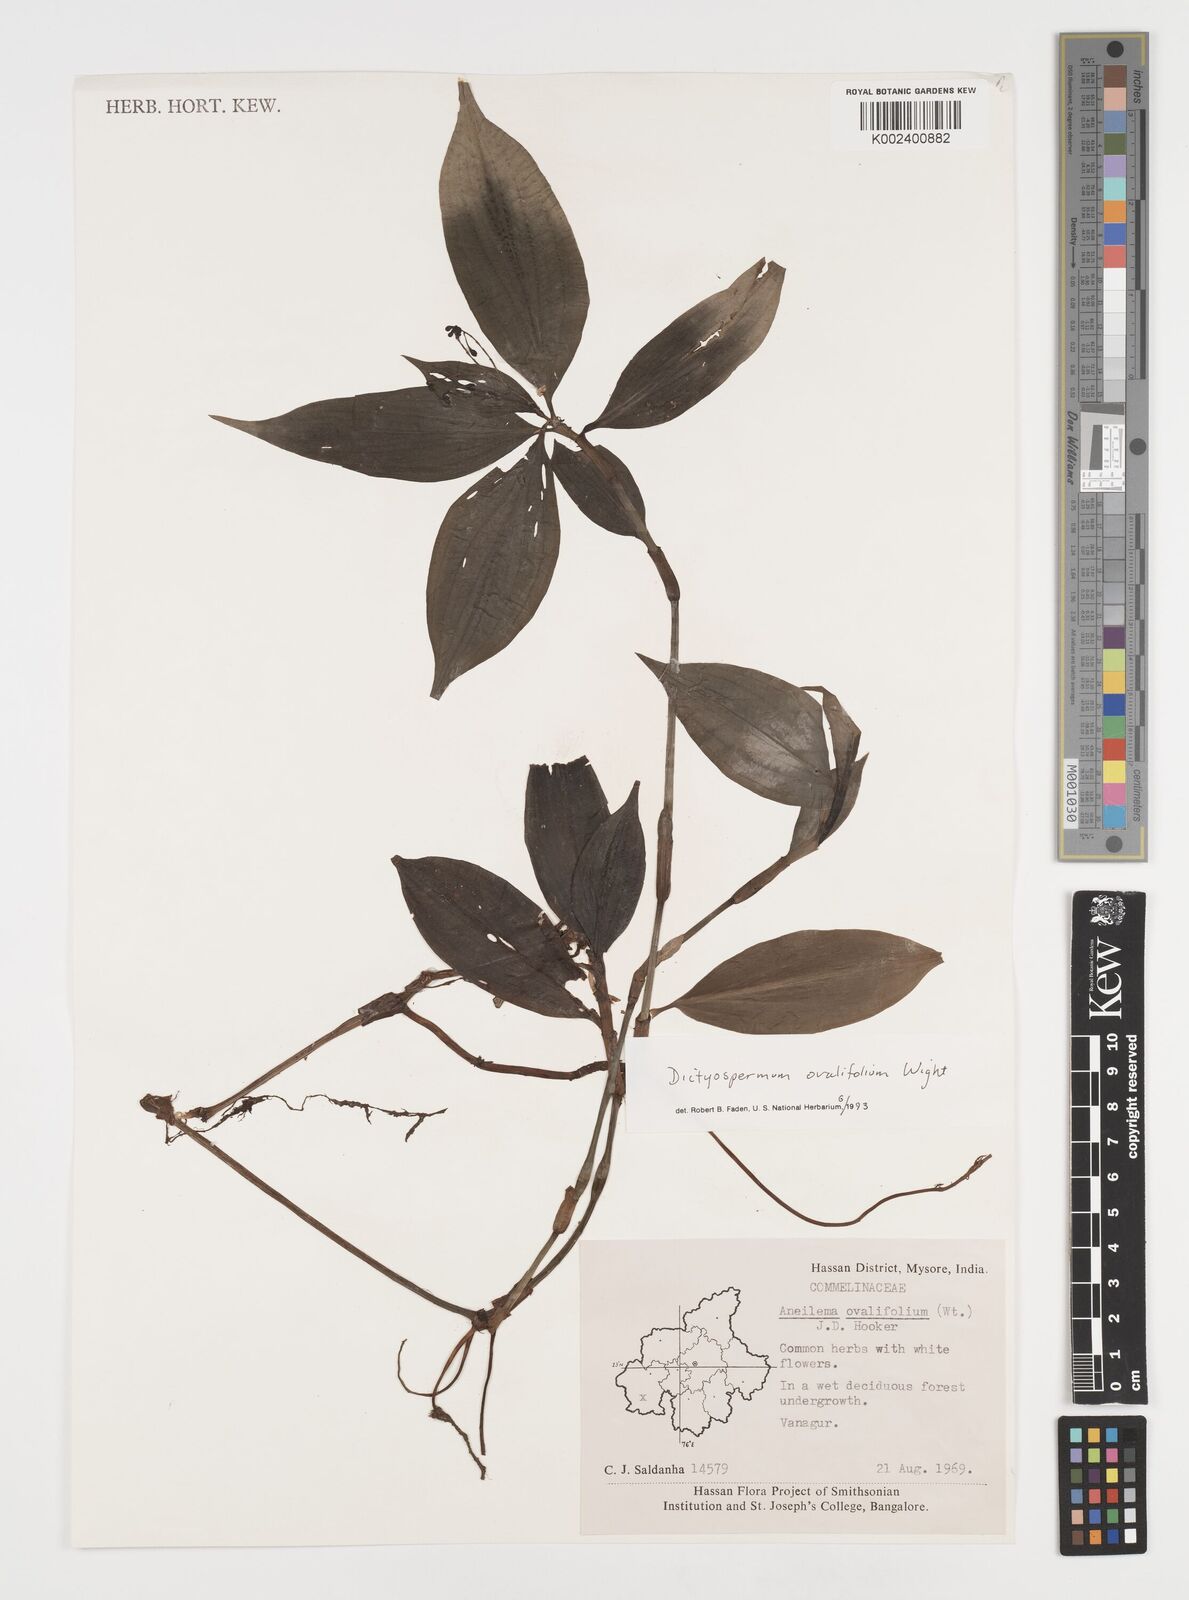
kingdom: Plantae
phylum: Tracheophyta
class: Liliopsida
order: Commelinales
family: Commelinaceae
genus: Dictyospermum
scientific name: Dictyospermum ovalifolium
